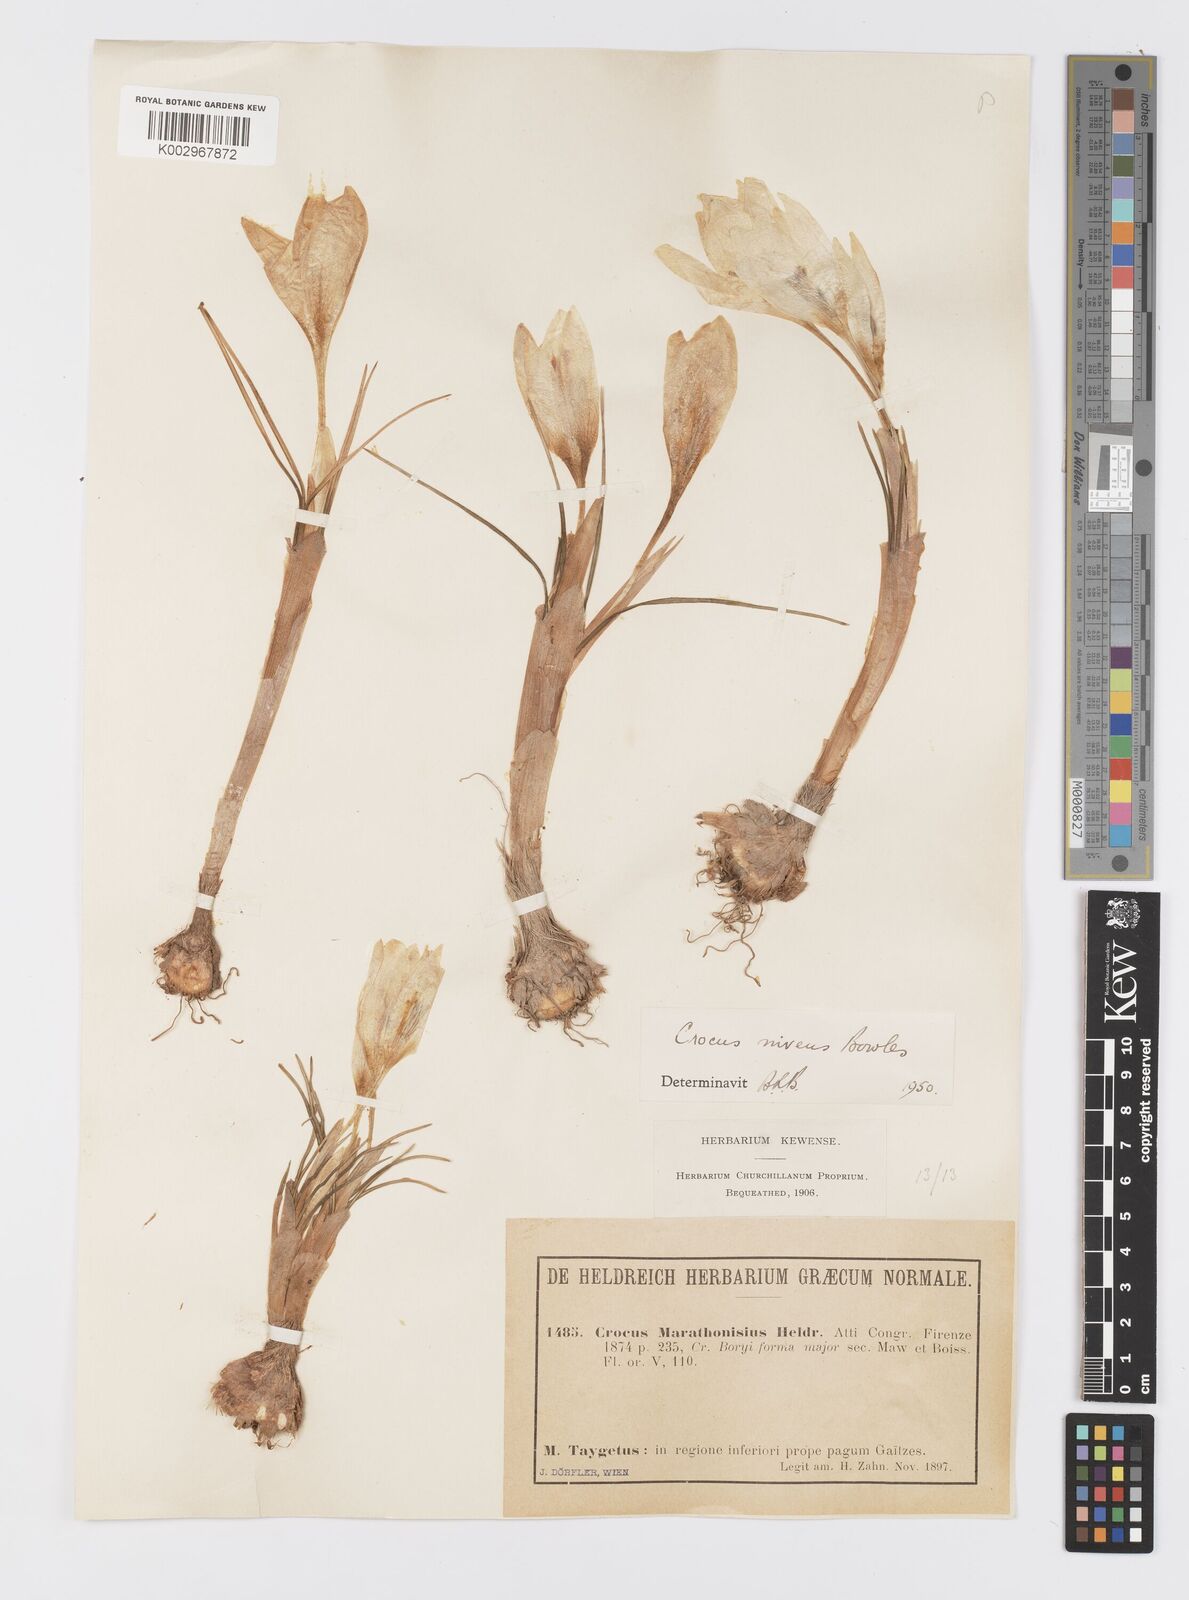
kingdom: Plantae
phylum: Tracheophyta
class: Liliopsida
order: Asparagales
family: Iridaceae
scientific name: Iridaceae
